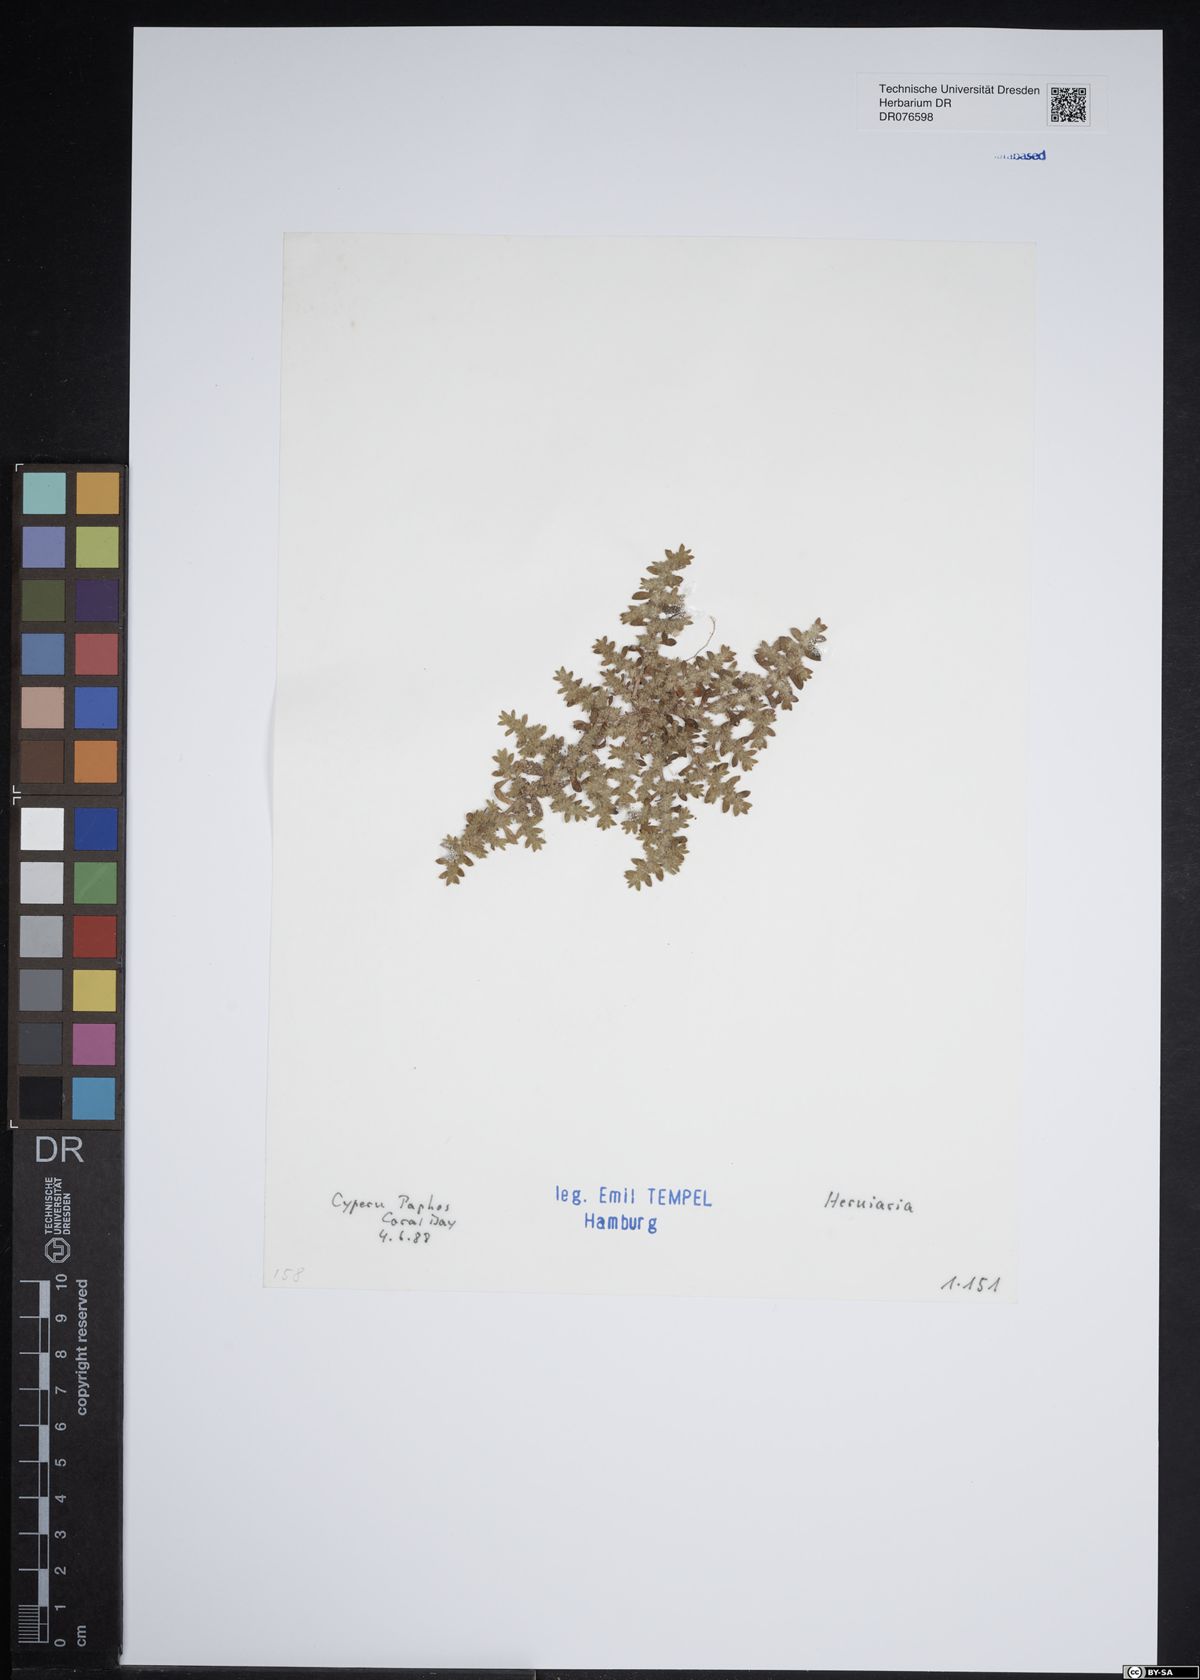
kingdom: Plantae
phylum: Tracheophyta
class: Magnoliopsida
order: Caryophyllales
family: Caryophyllaceae
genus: Herniaria
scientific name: Herniaria
